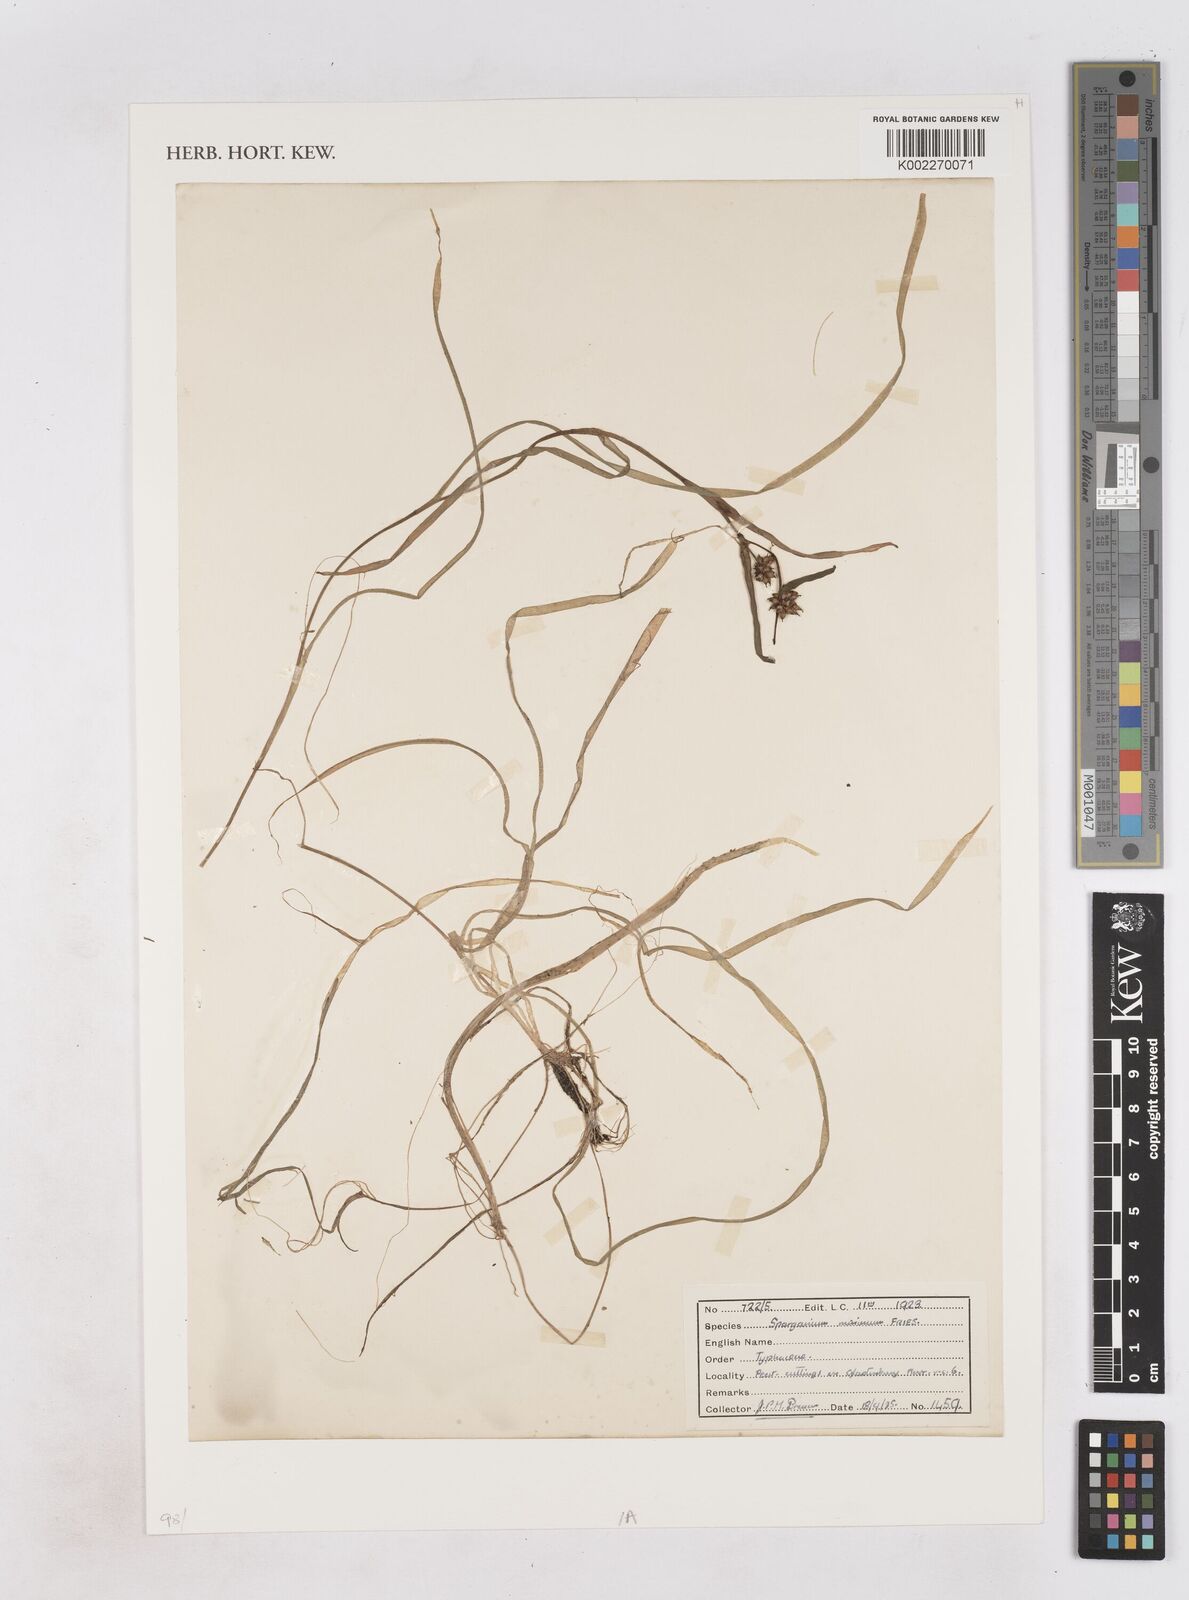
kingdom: Plantae
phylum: Tracheophyta
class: Liliopsida
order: Poales
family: Typhaceae
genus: Sparganium
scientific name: Sparganium natans
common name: Least bur-reed
